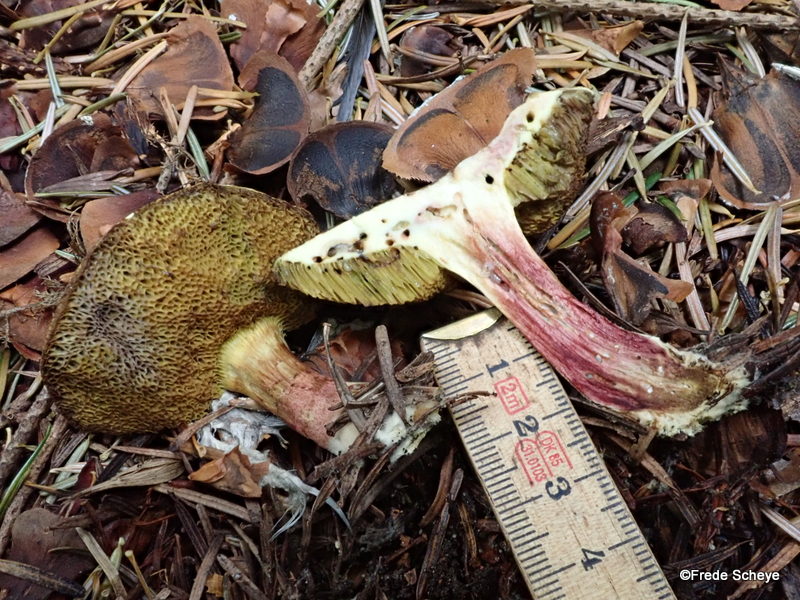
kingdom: Fungi
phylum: Basidiomycota
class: Agaricomycetes
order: Boletales
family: Boletaceae
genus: Xerocomellus
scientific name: Xerocomellus chrysenteron
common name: rødsprukken rørhat
